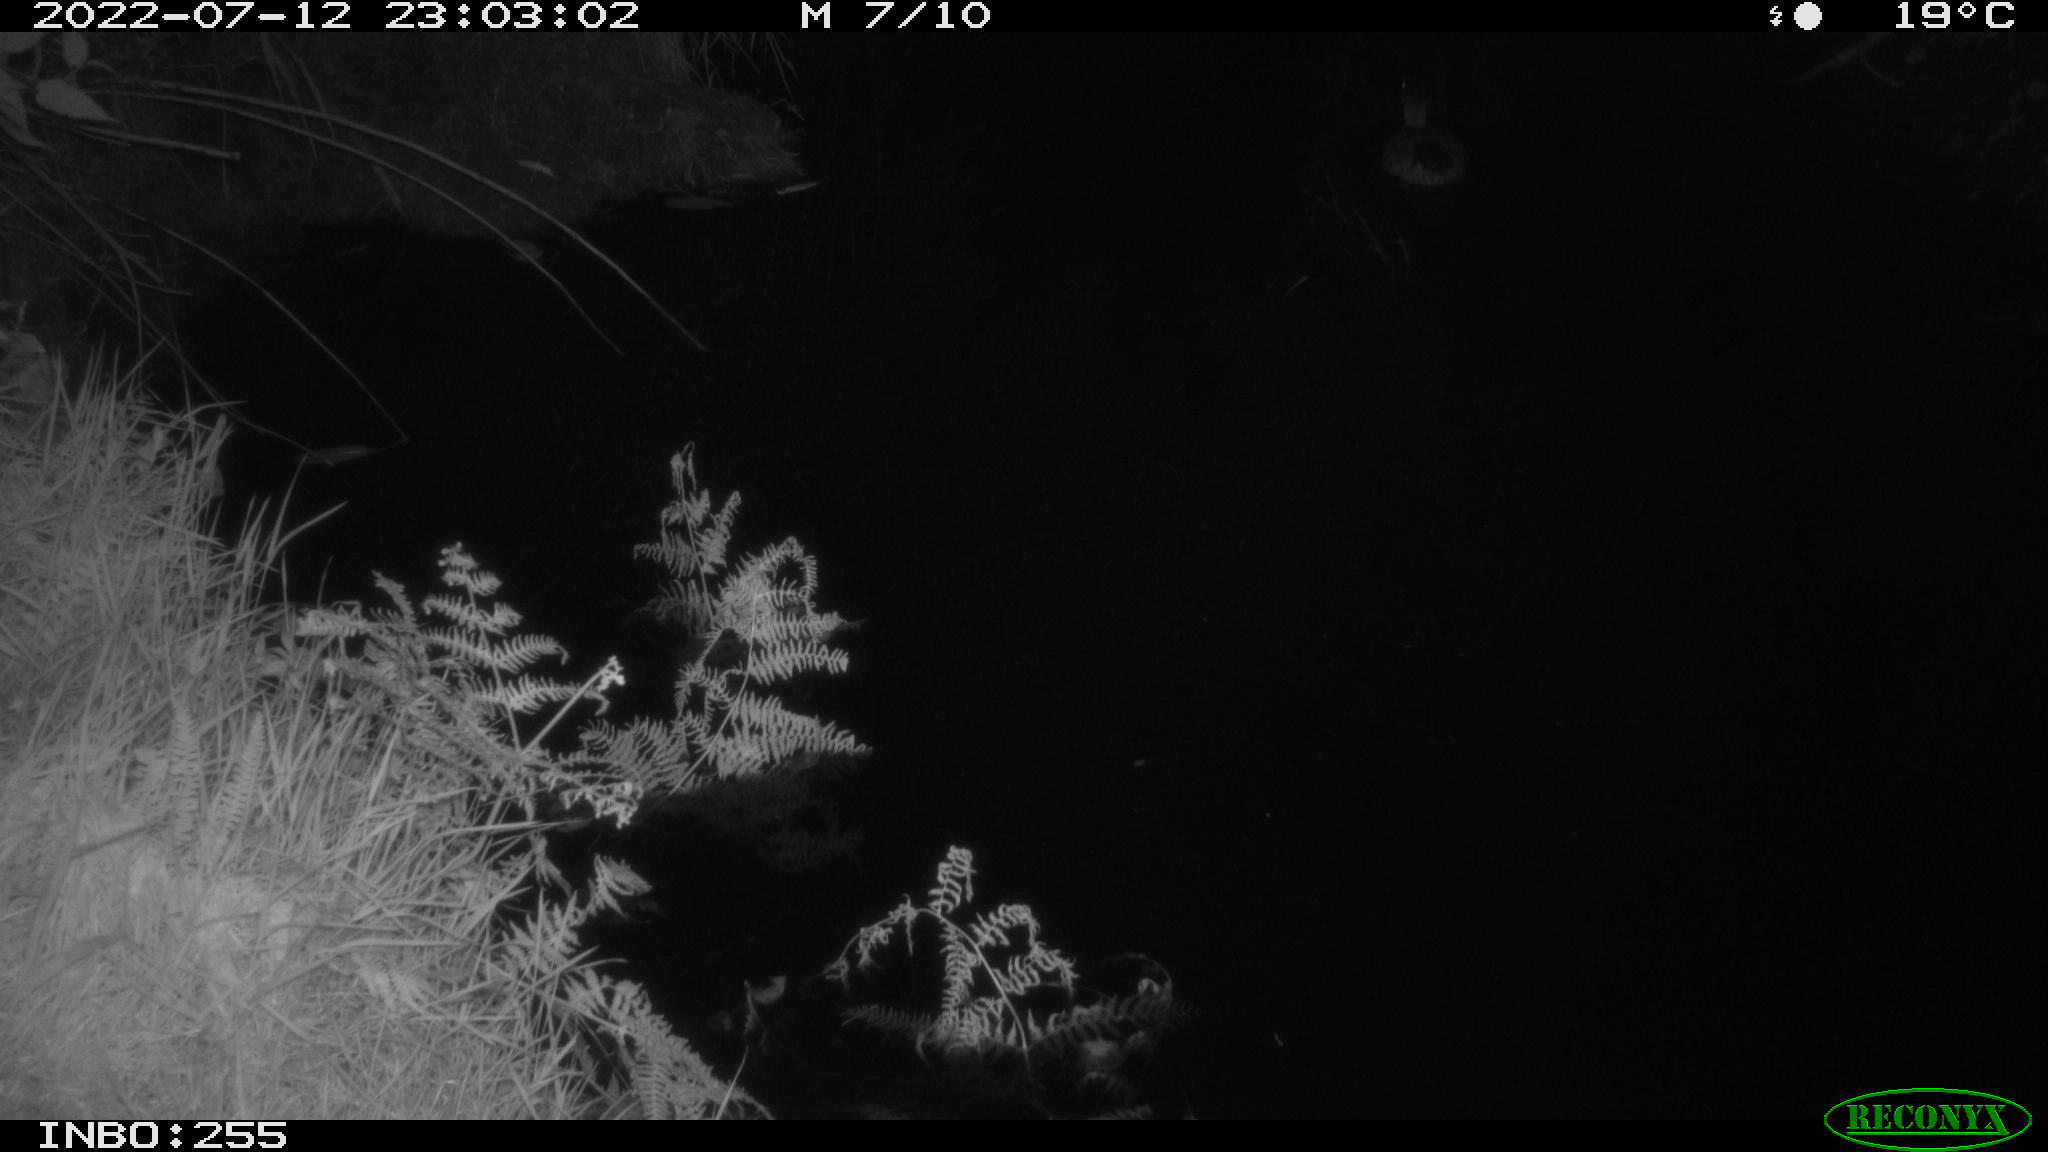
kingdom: Animalia
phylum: Chordata
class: Aves
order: Anseriformes
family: Anatidae
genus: Anas
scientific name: Anas platyrhynchos
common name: Mallard
